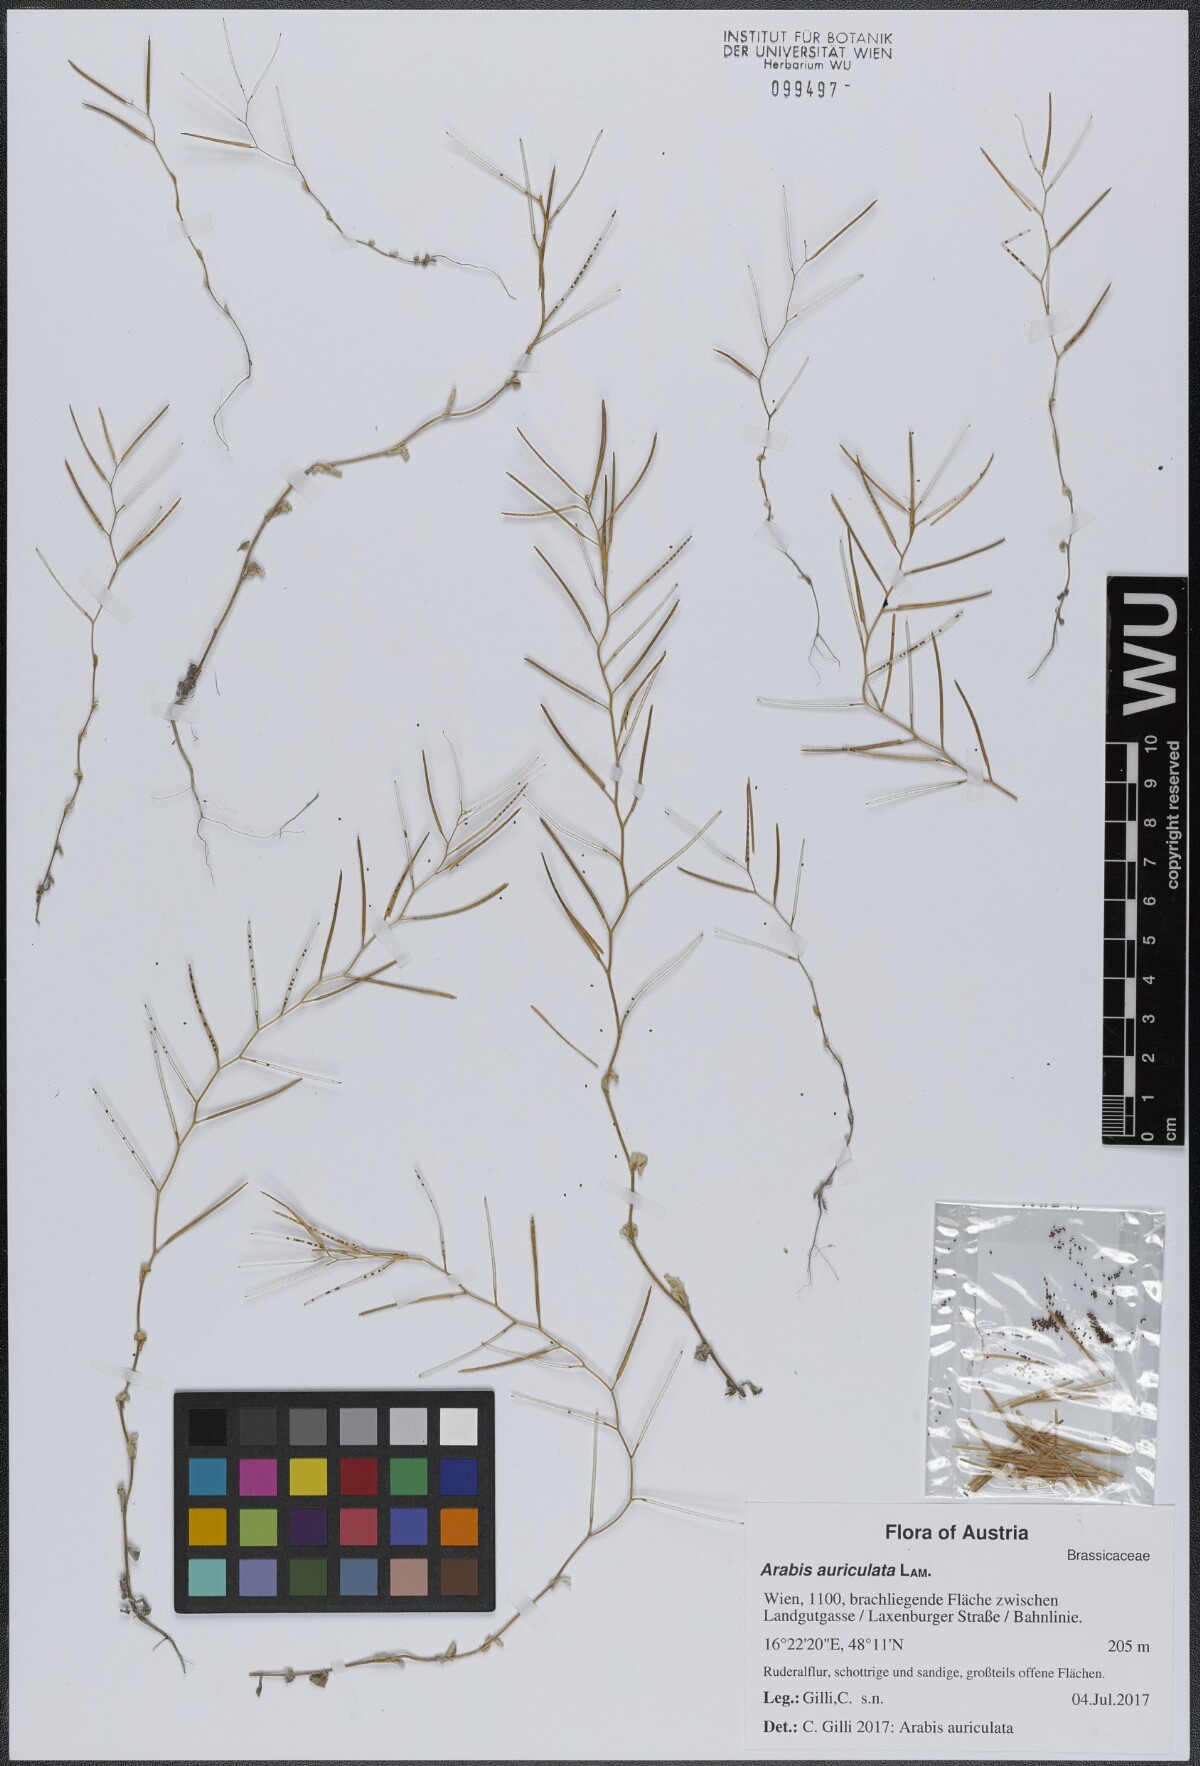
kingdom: Plantae
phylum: Tracheophyta
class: Magnoliopsida
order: Brassicales
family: Brassicaceae
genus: Arabis
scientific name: Arabis auriculata
